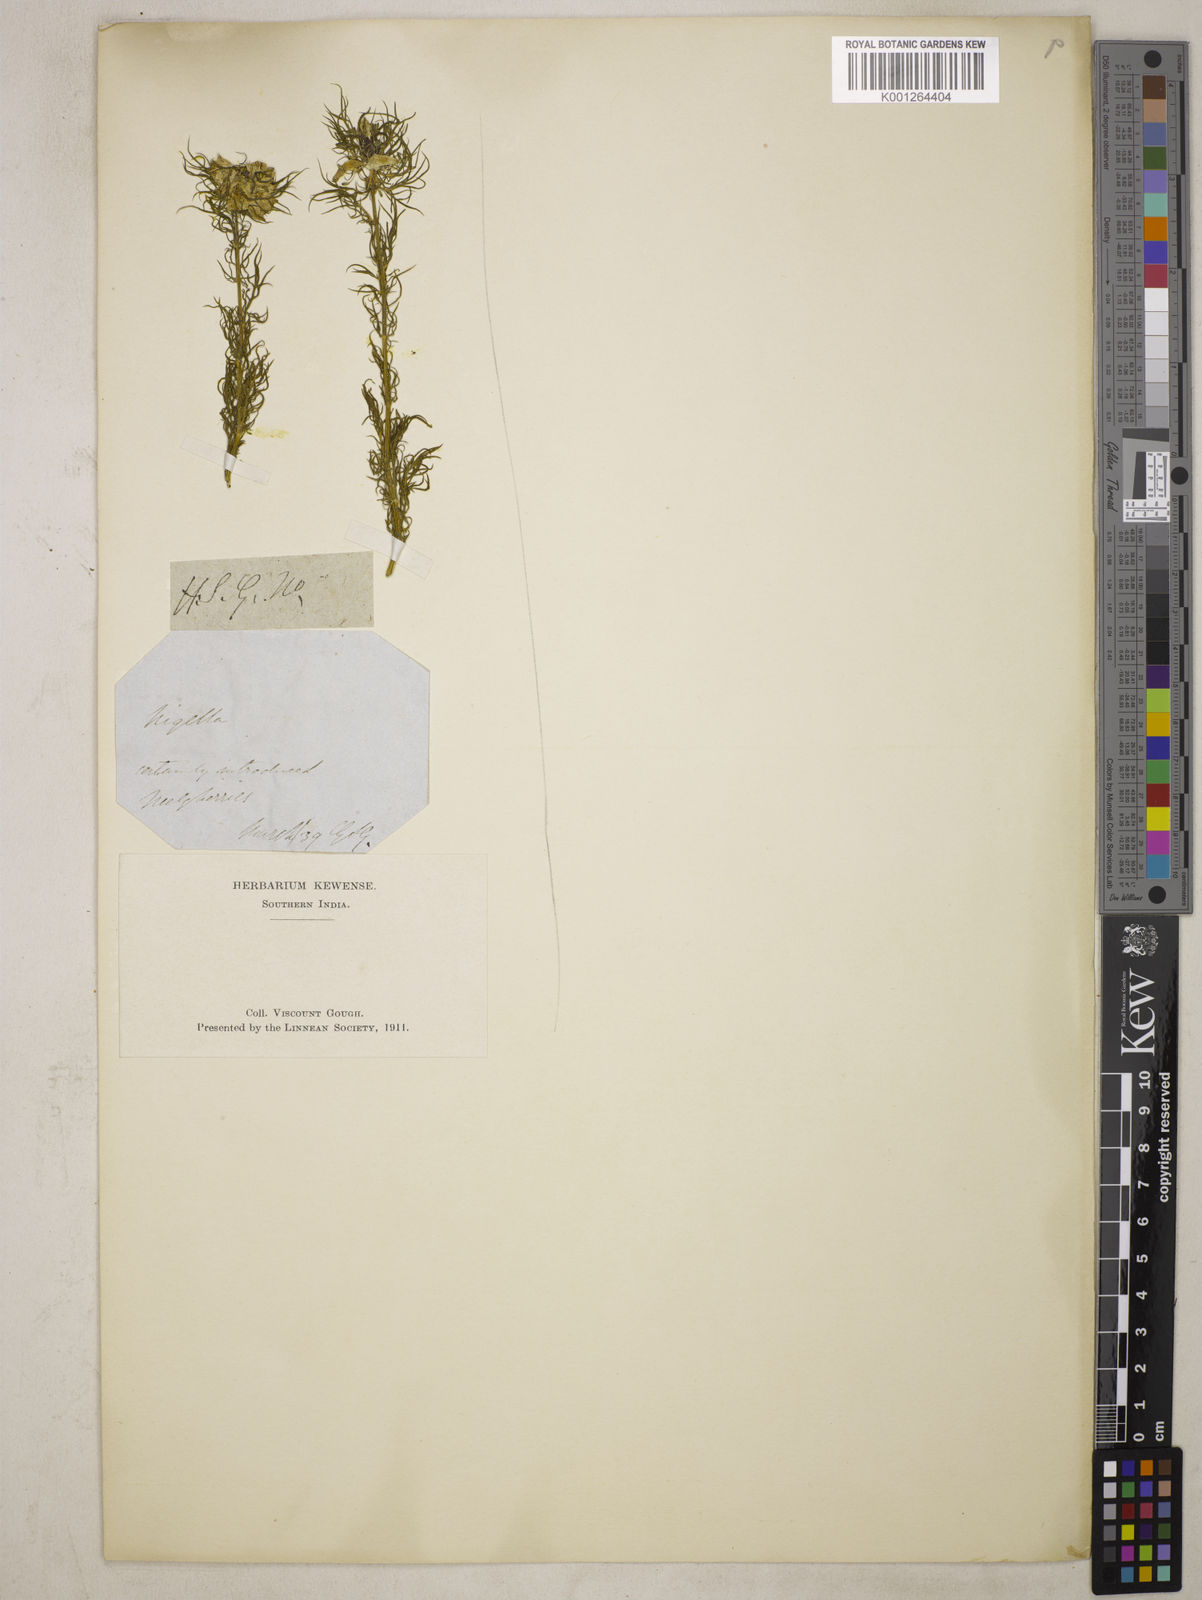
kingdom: Plantae
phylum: Tracheophyta
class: Magnoliopsida
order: Ranunculales
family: Ranunculaceae
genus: Nigella
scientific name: Nigella damascena
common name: Love-in-a-mist
